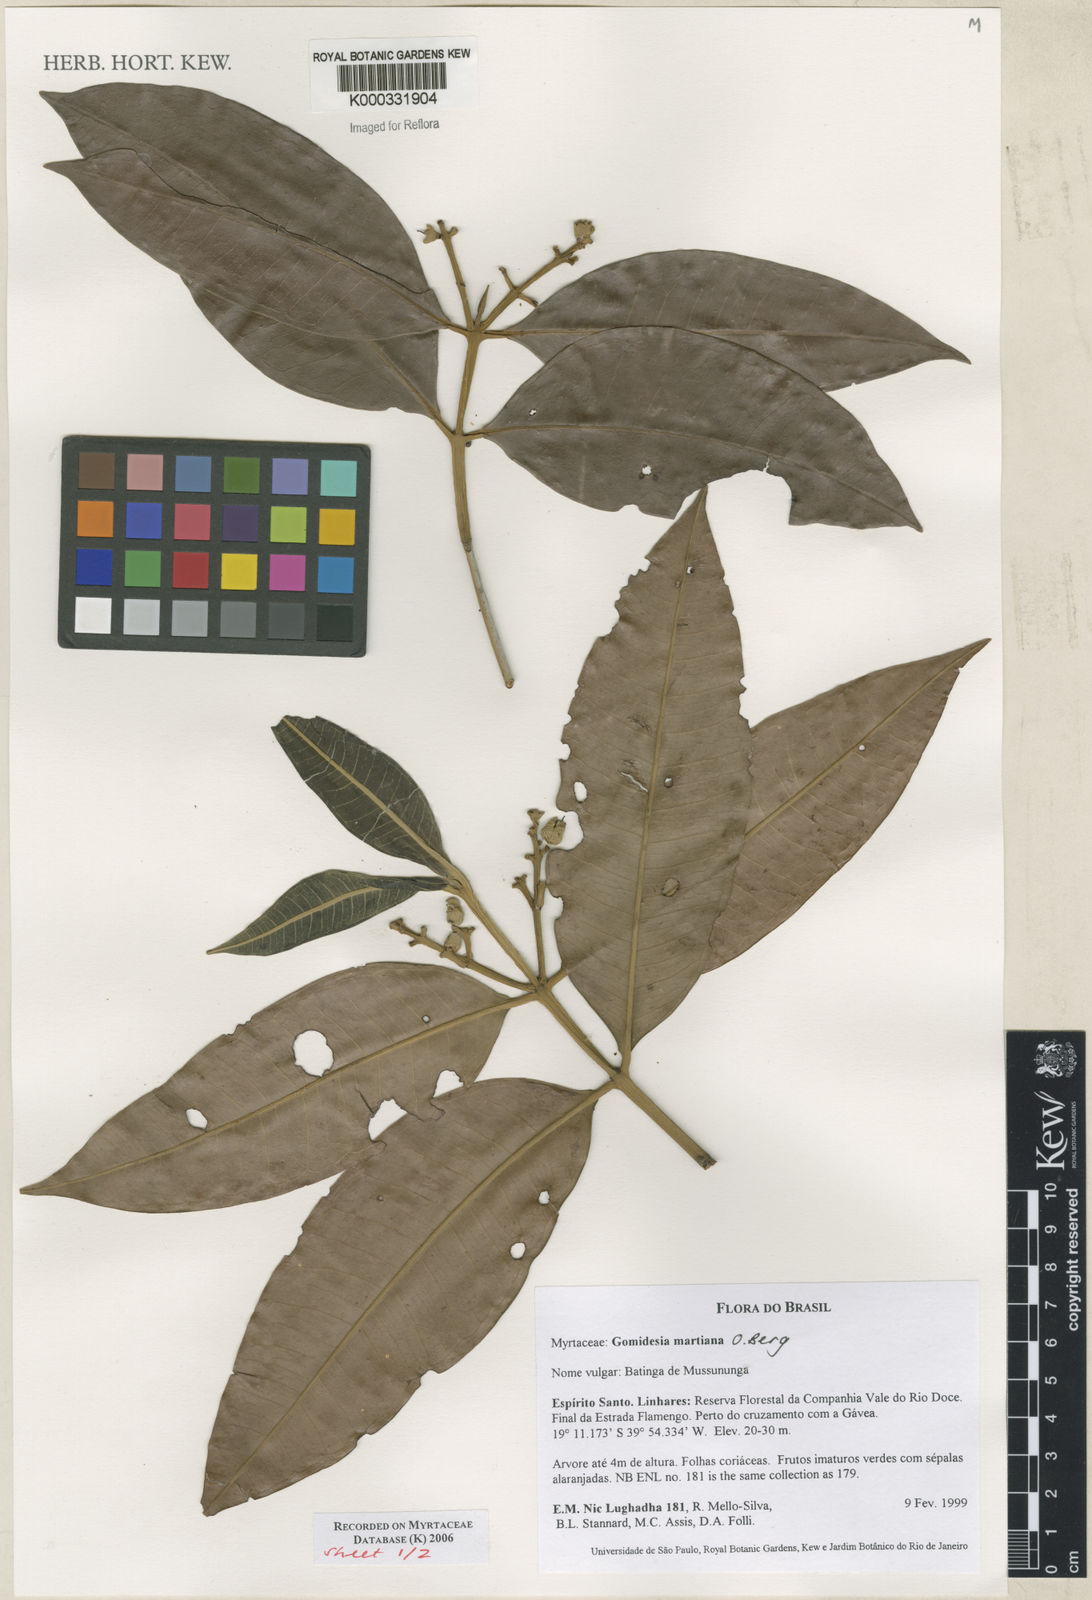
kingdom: Plantae
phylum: Tracheophyta
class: Magnoliopsida
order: Myrtales
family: Myrtaceae
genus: Myrcia
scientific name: Myrcia vittoriana
